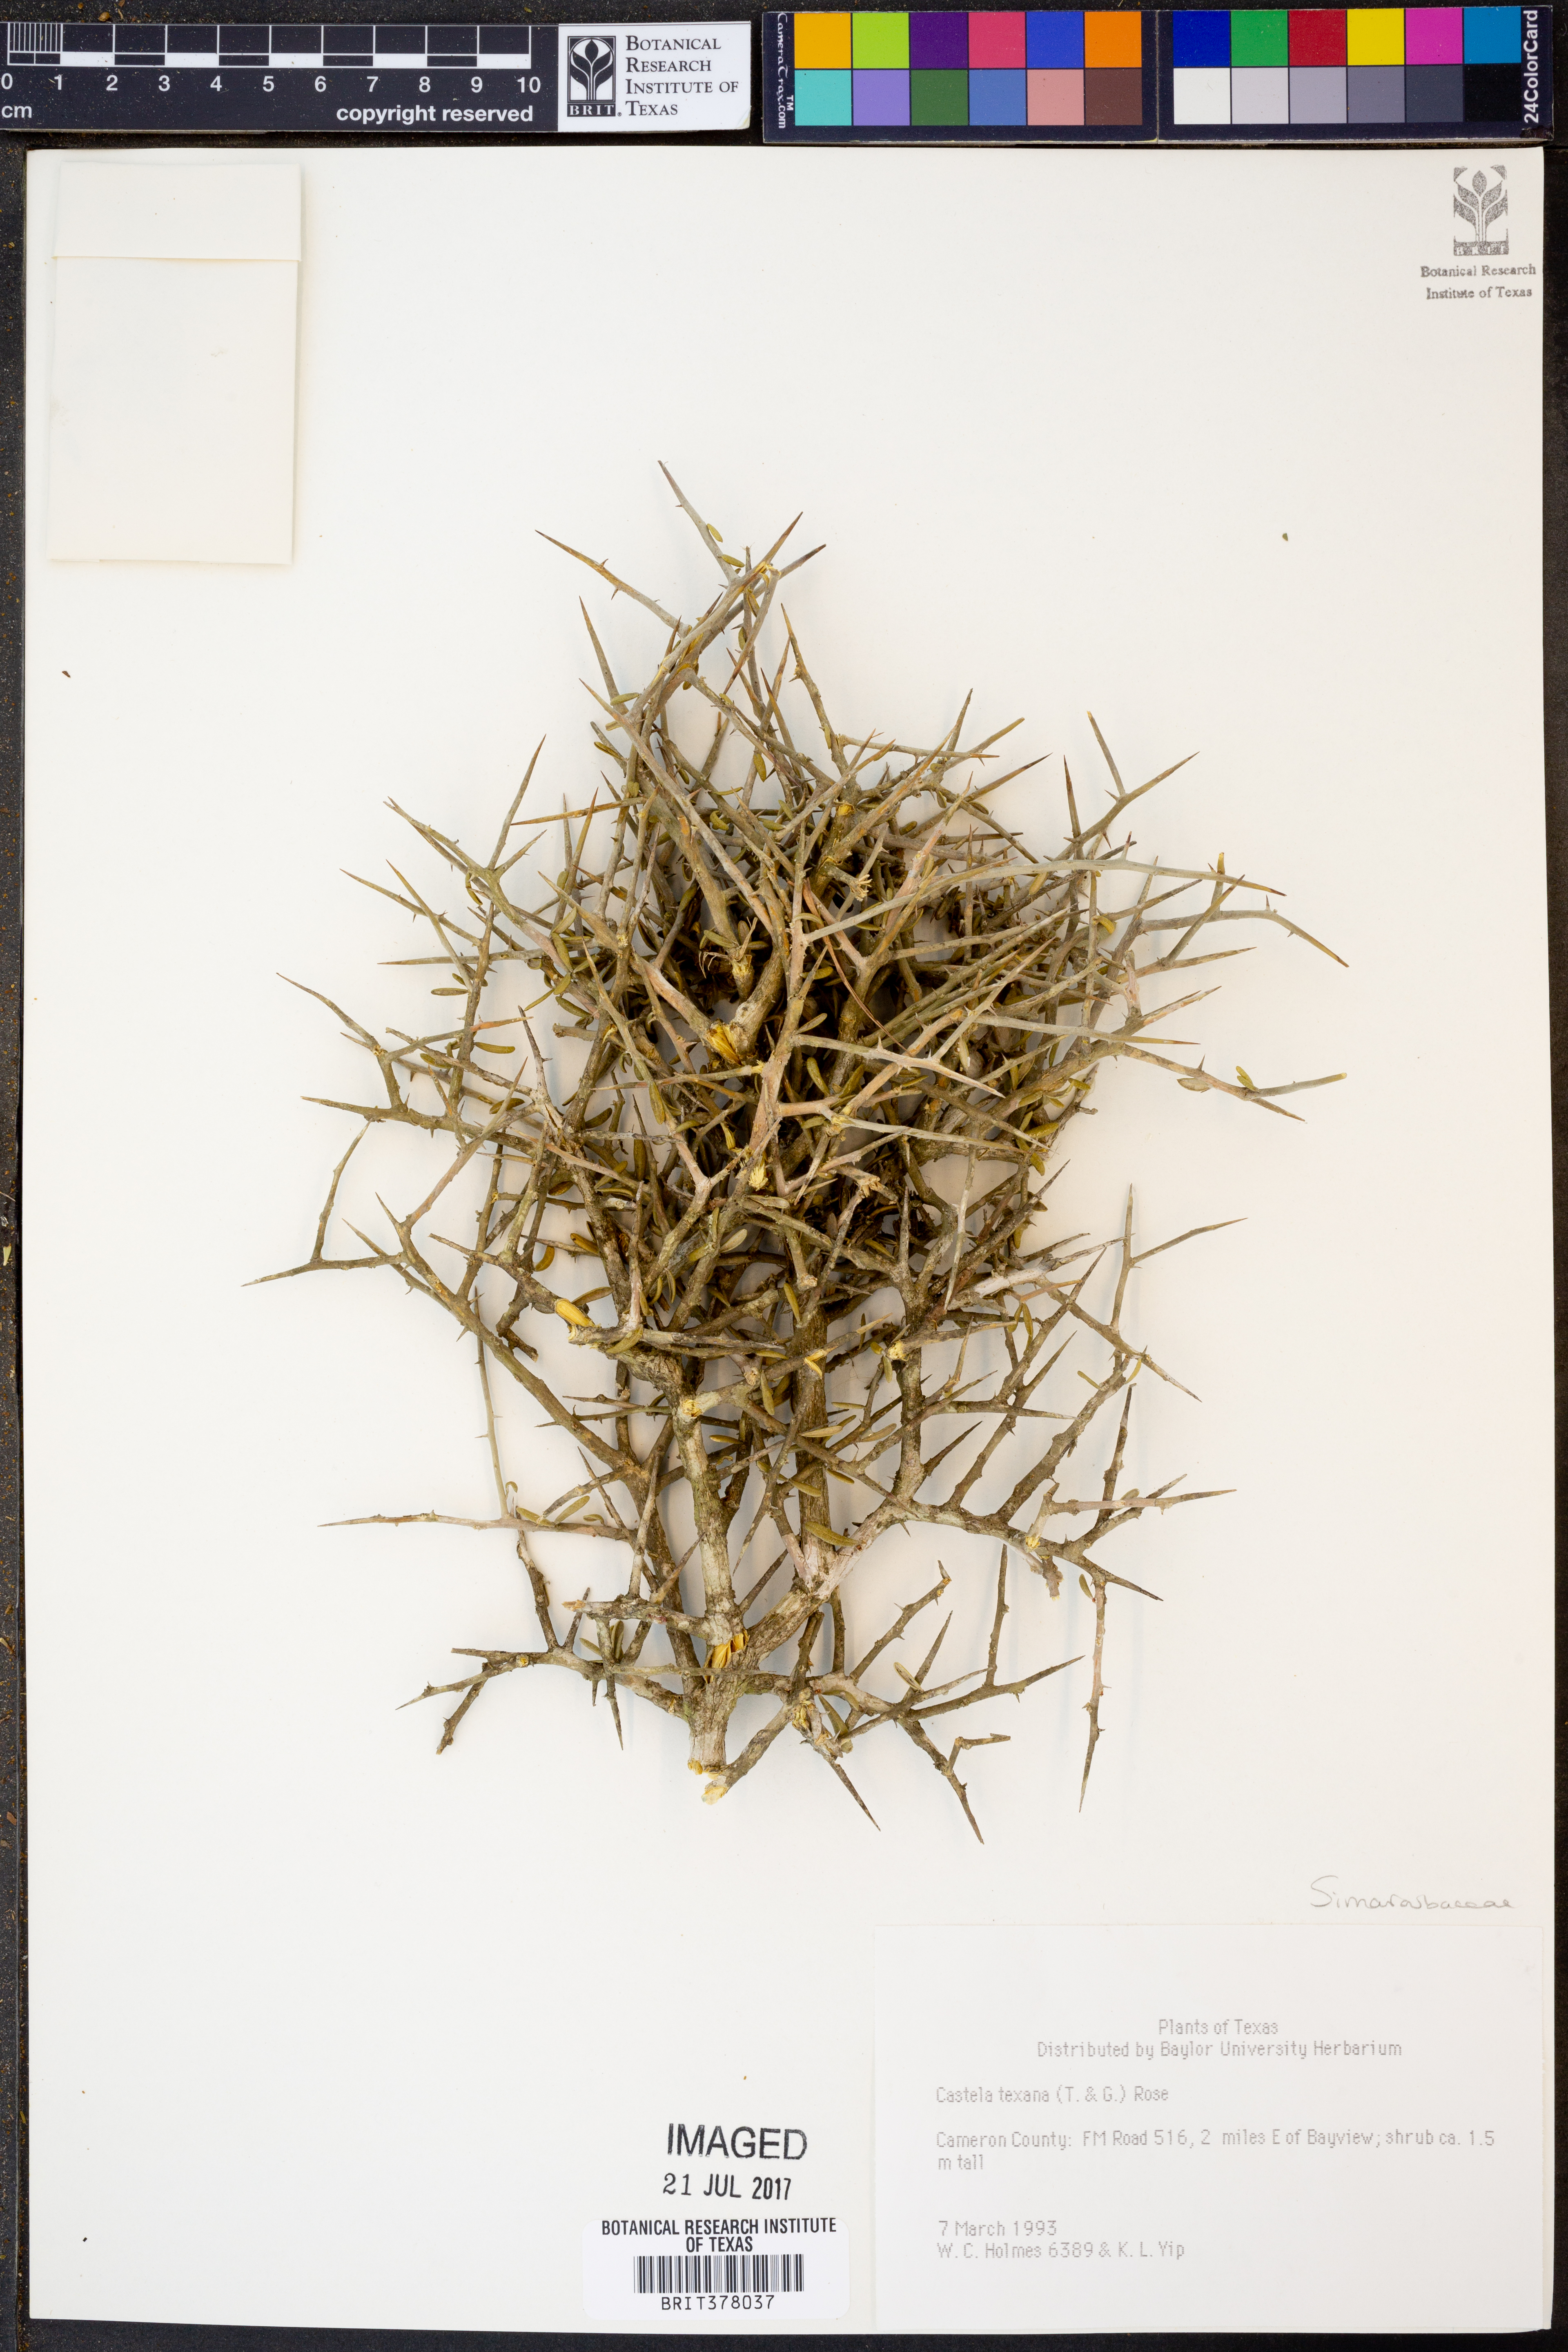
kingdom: Plantae
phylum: Tracheophyta
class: Magnoliopsida
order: Sapindales
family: Simaroubaceae
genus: Castela
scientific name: Castela tortuosa
